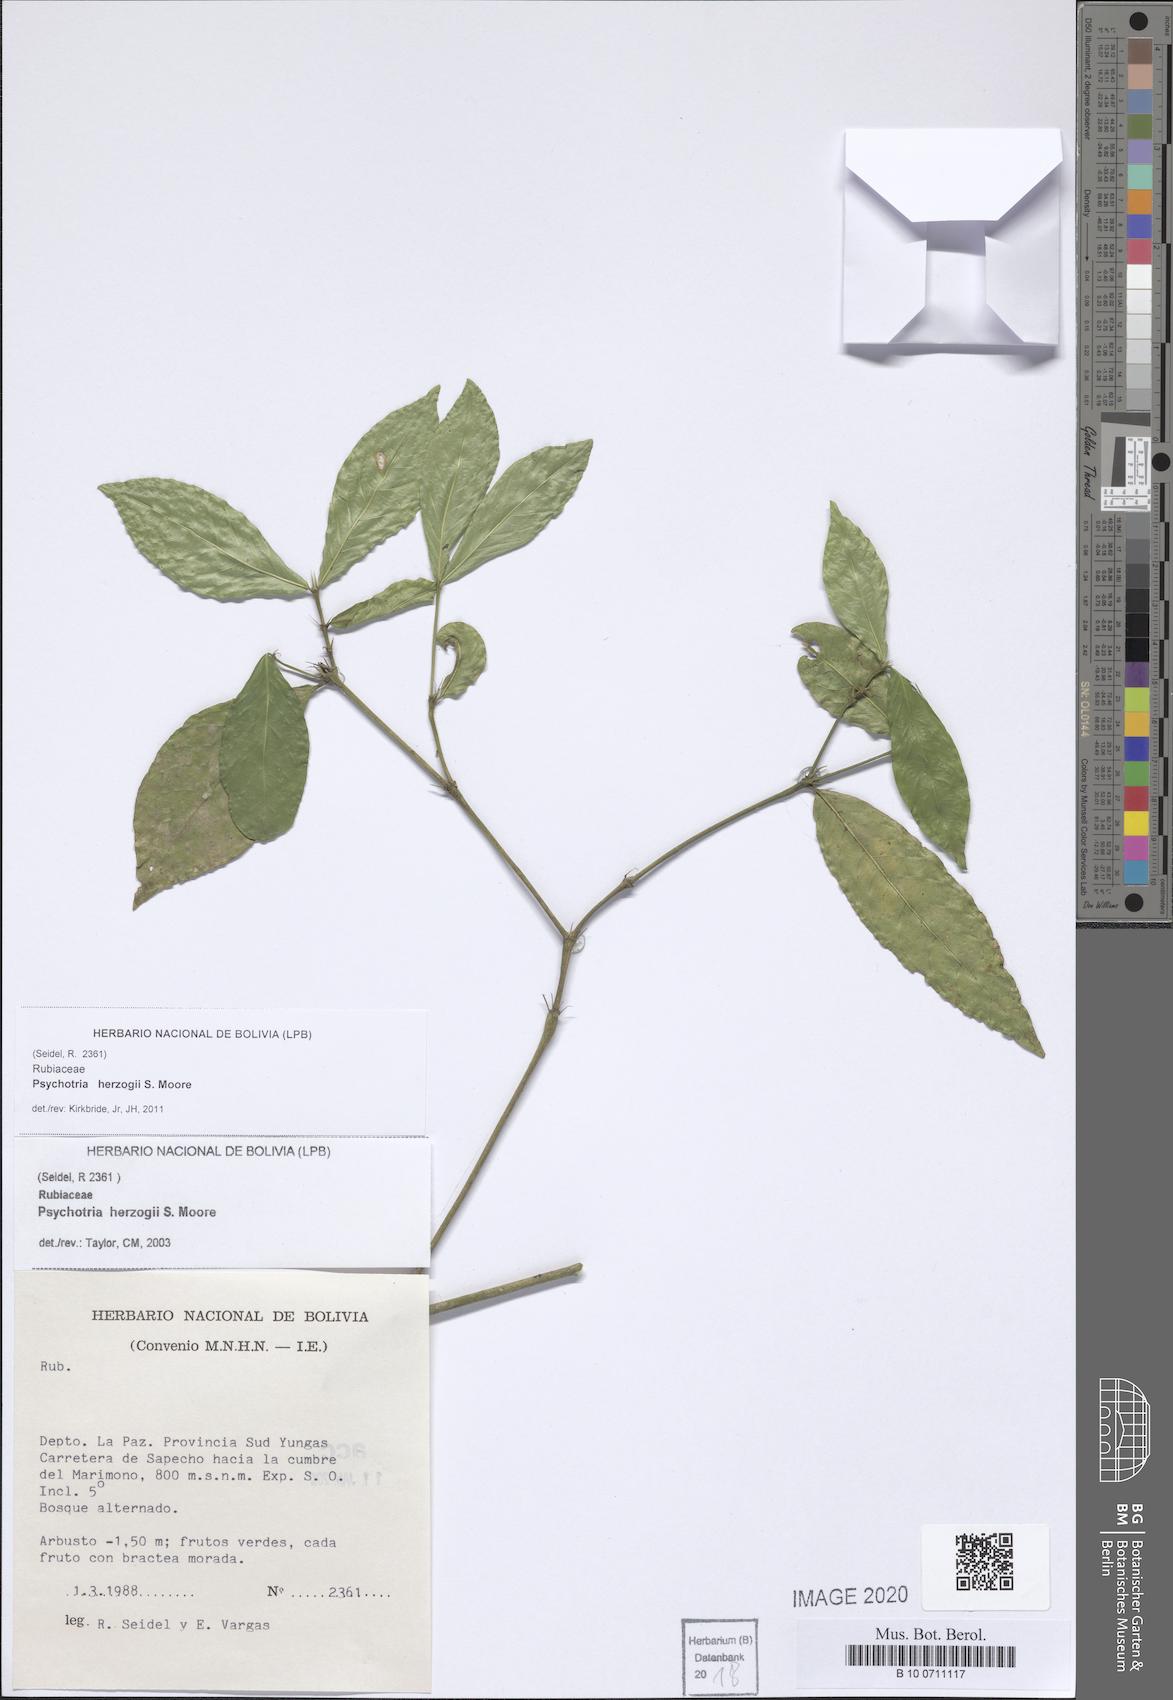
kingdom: Plantae
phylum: Tracheophyta
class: Magnoliopsida
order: Gentianales
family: Rubiaceae
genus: Psychotria
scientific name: Psychotria herzogii
